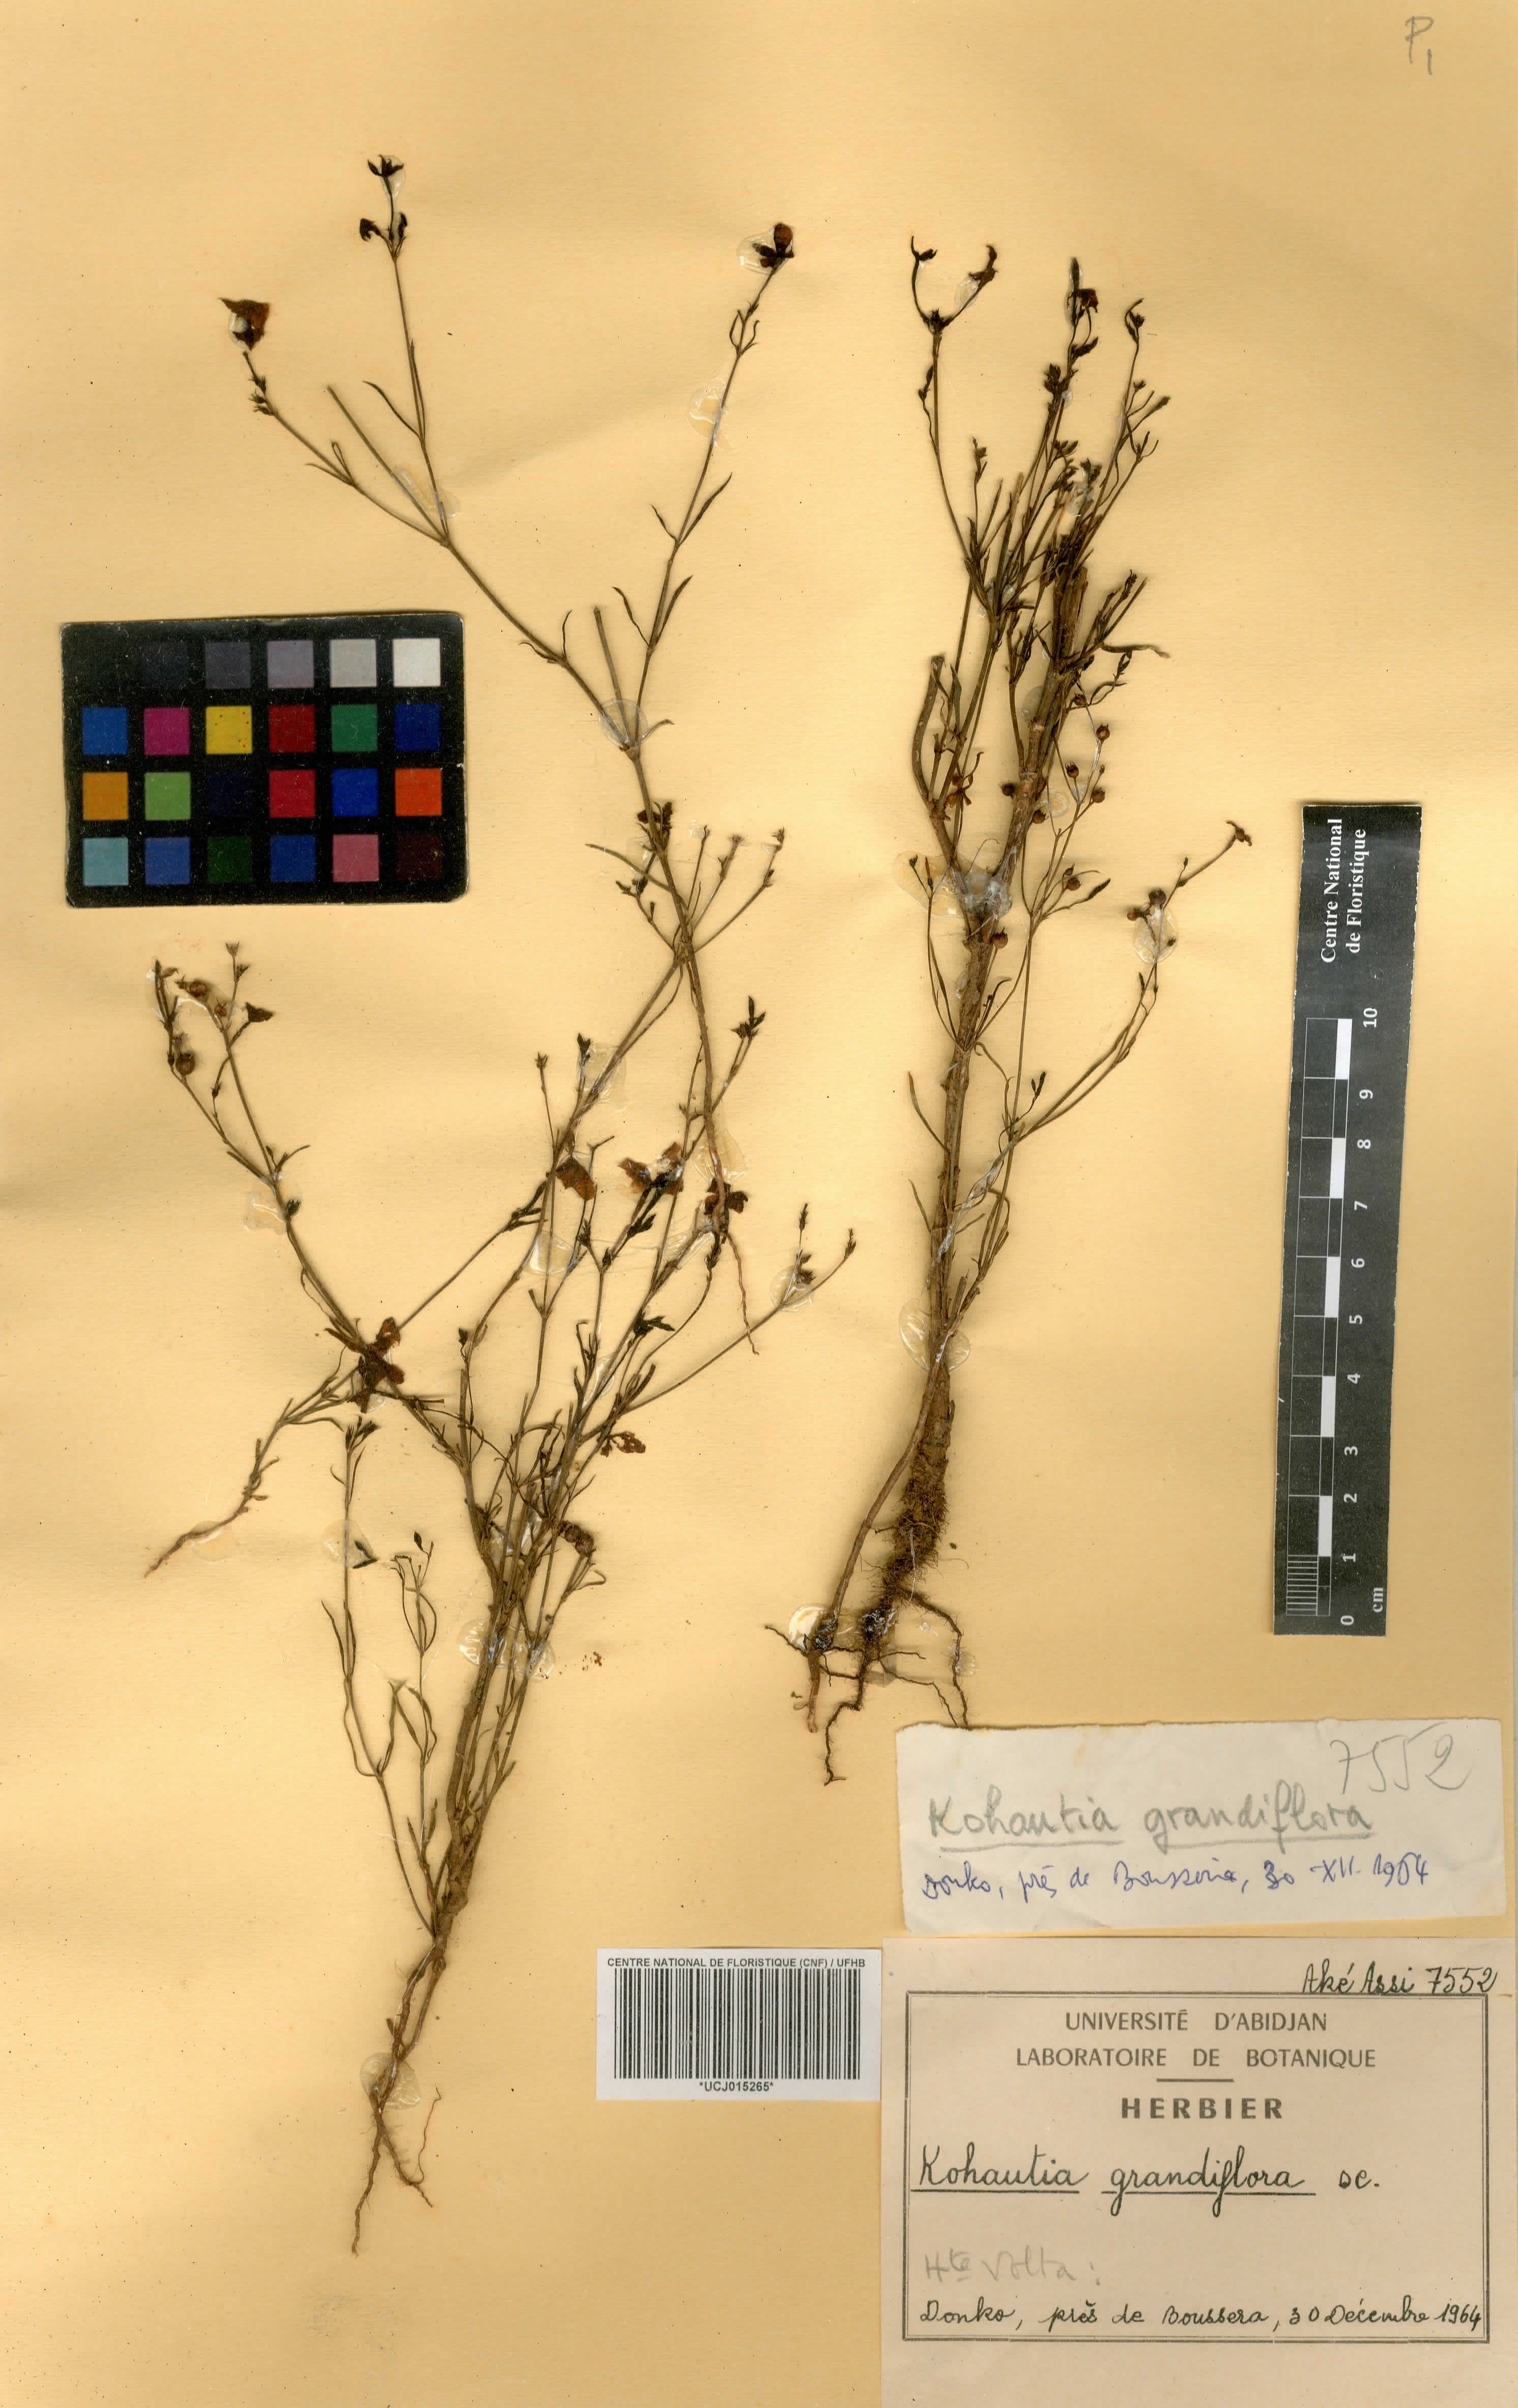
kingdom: Plantae
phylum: Tracheophyta
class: Magnoliopsida
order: Gentianales
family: Rubiaceae
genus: Kohautia
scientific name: Kohautia grandiflora
